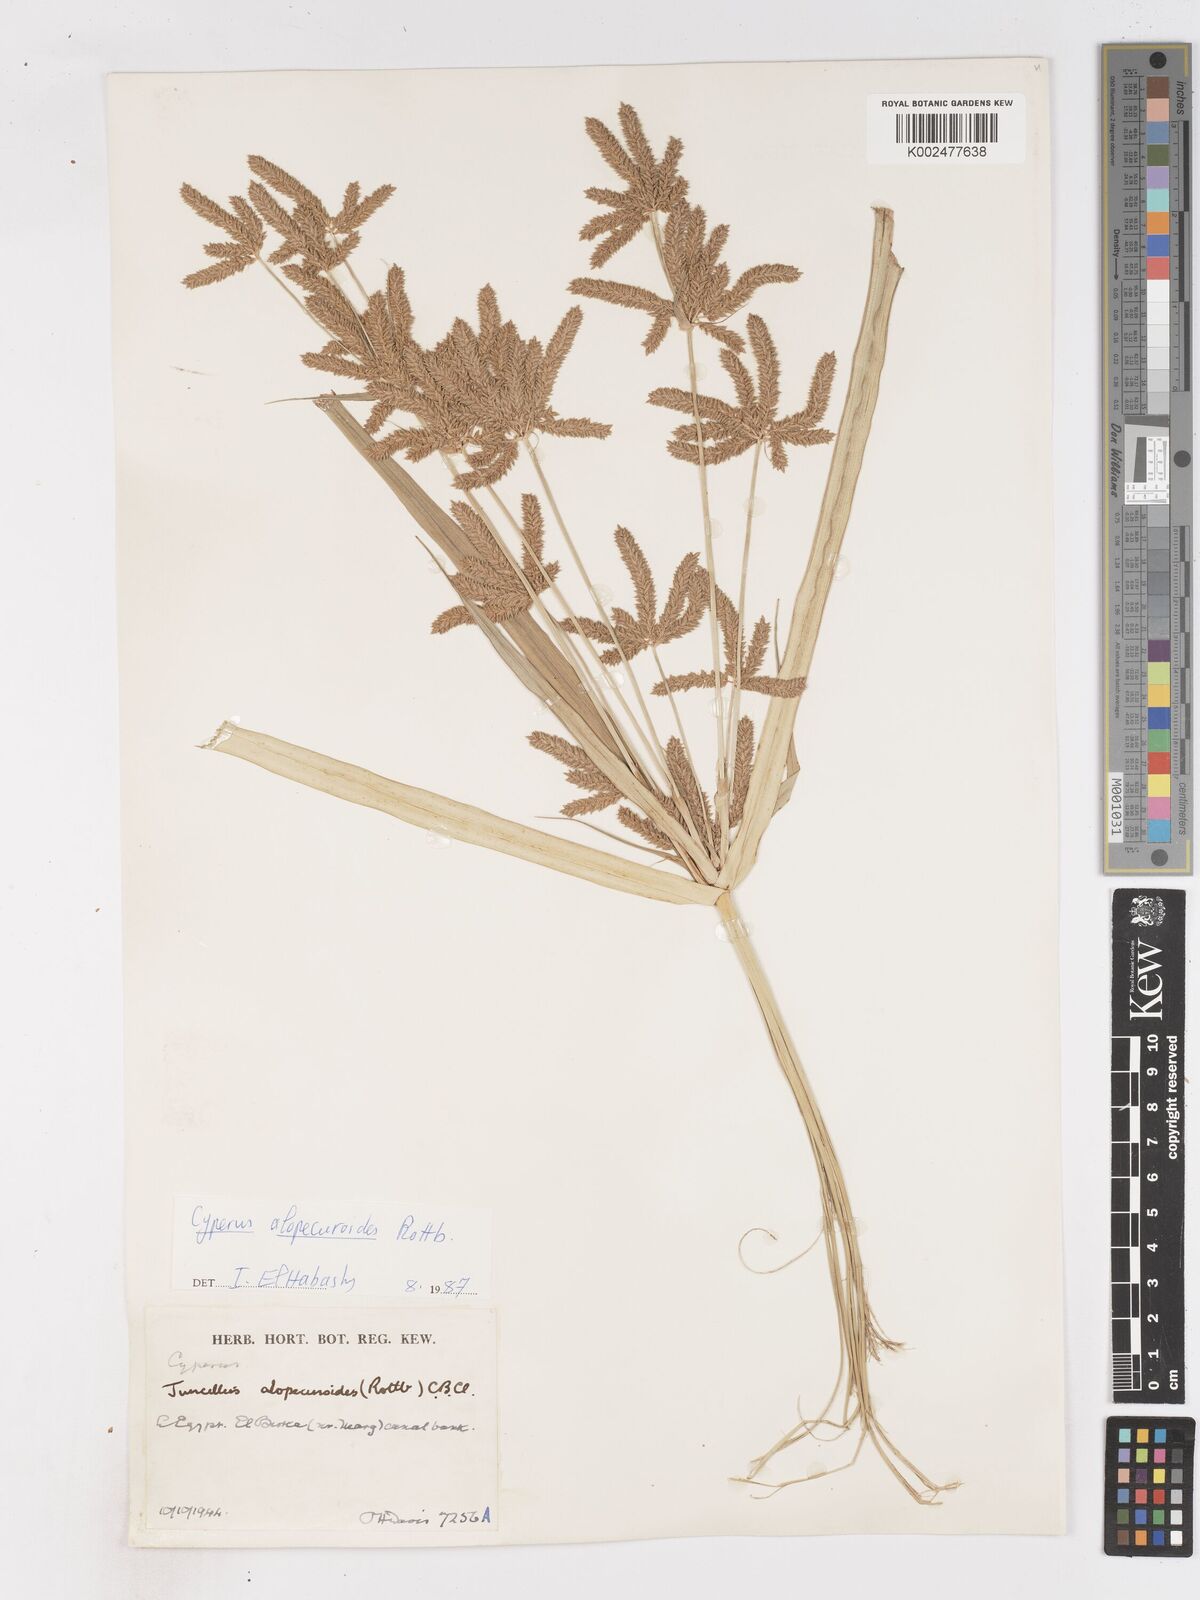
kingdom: Plantae
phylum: Tracheophyta
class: Liliopsida
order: Poales
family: Cyperaceae
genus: Cyperus
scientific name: Cyperus alopecuroides
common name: Foxtail flatsedge
